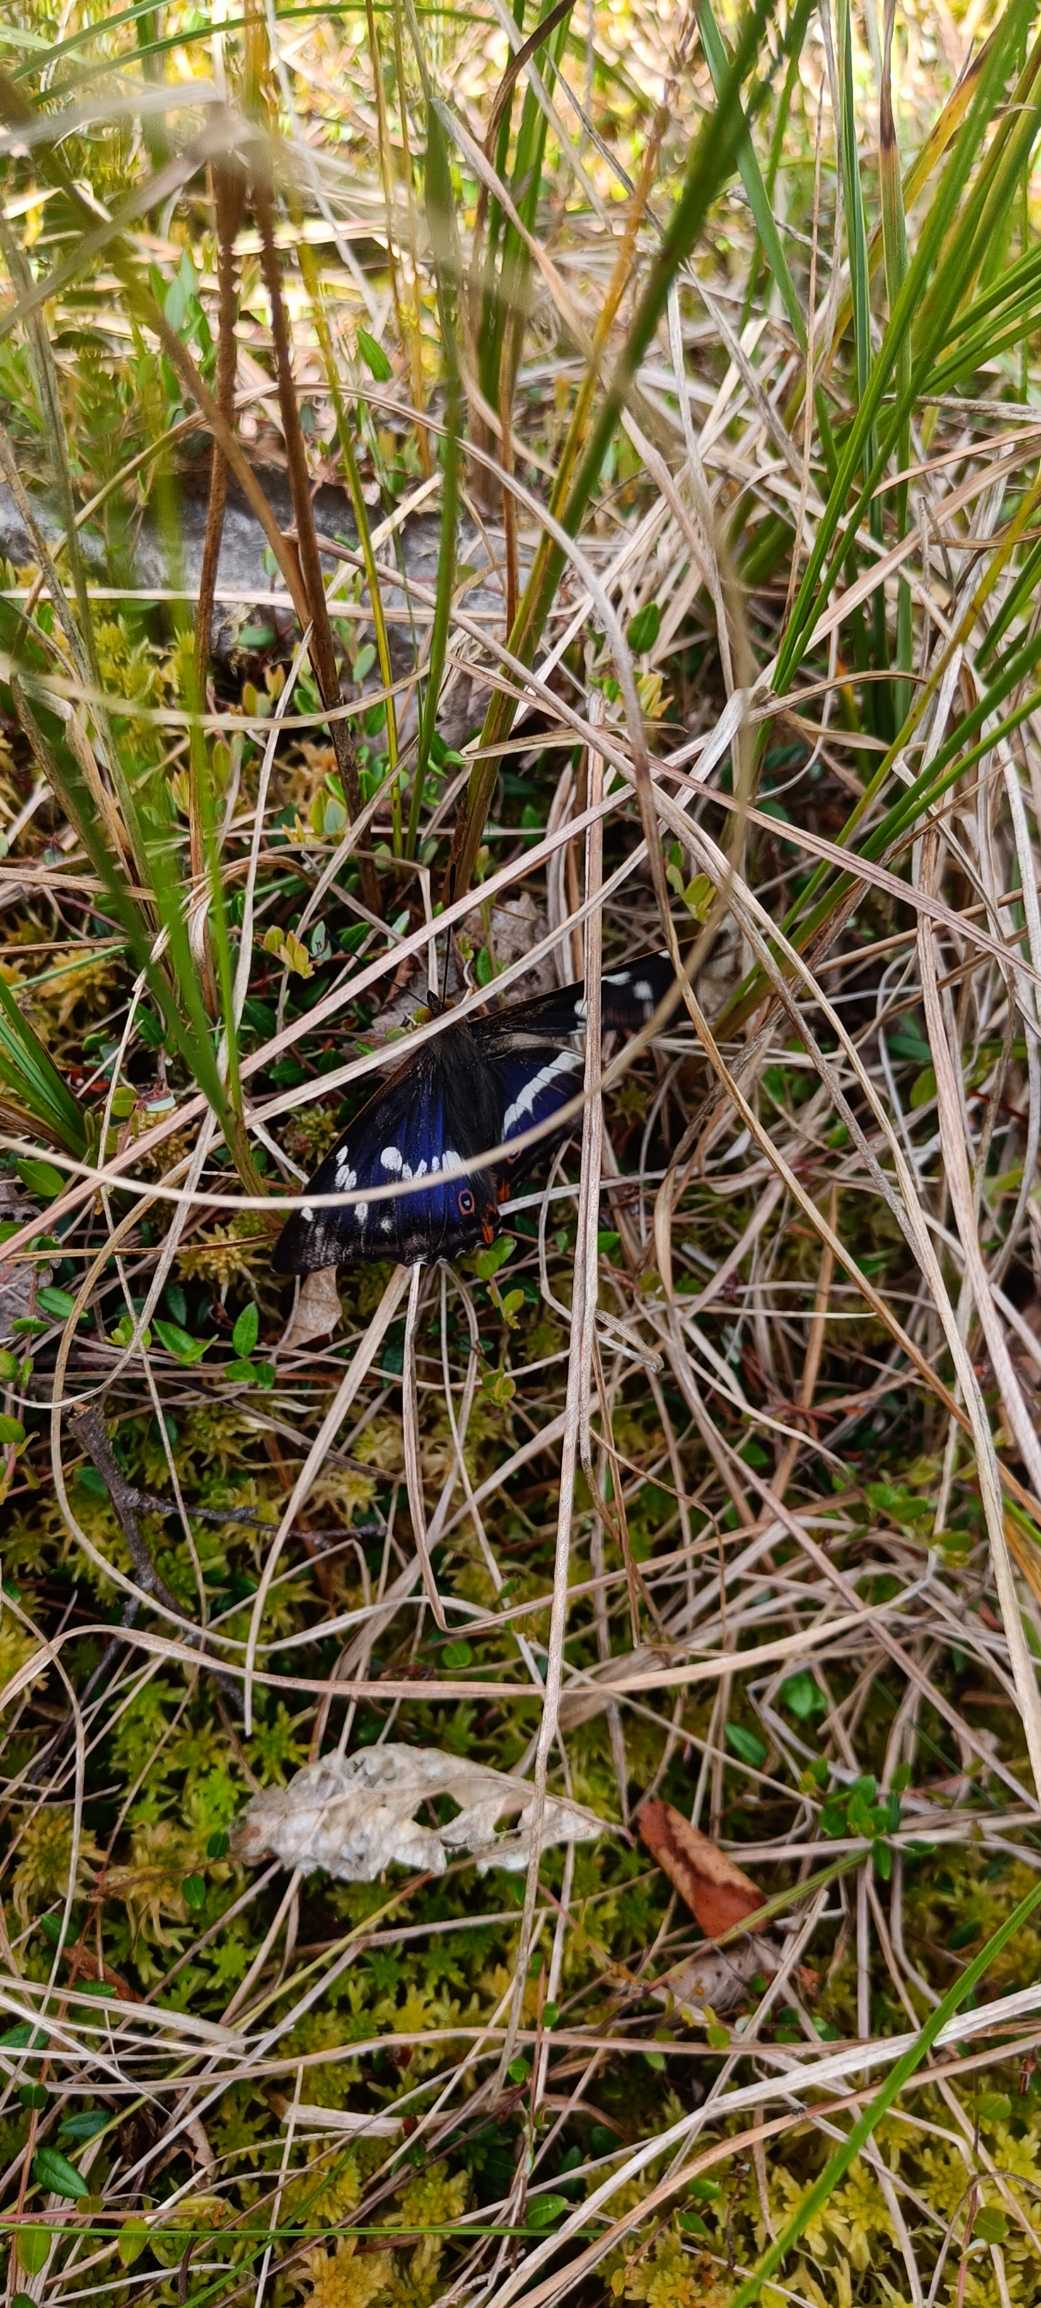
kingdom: Animalia
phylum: Arthropoda
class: Insecta
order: Lepidoptera
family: Nymphalidae
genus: Apatura
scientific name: Apatura iris
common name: Iris
